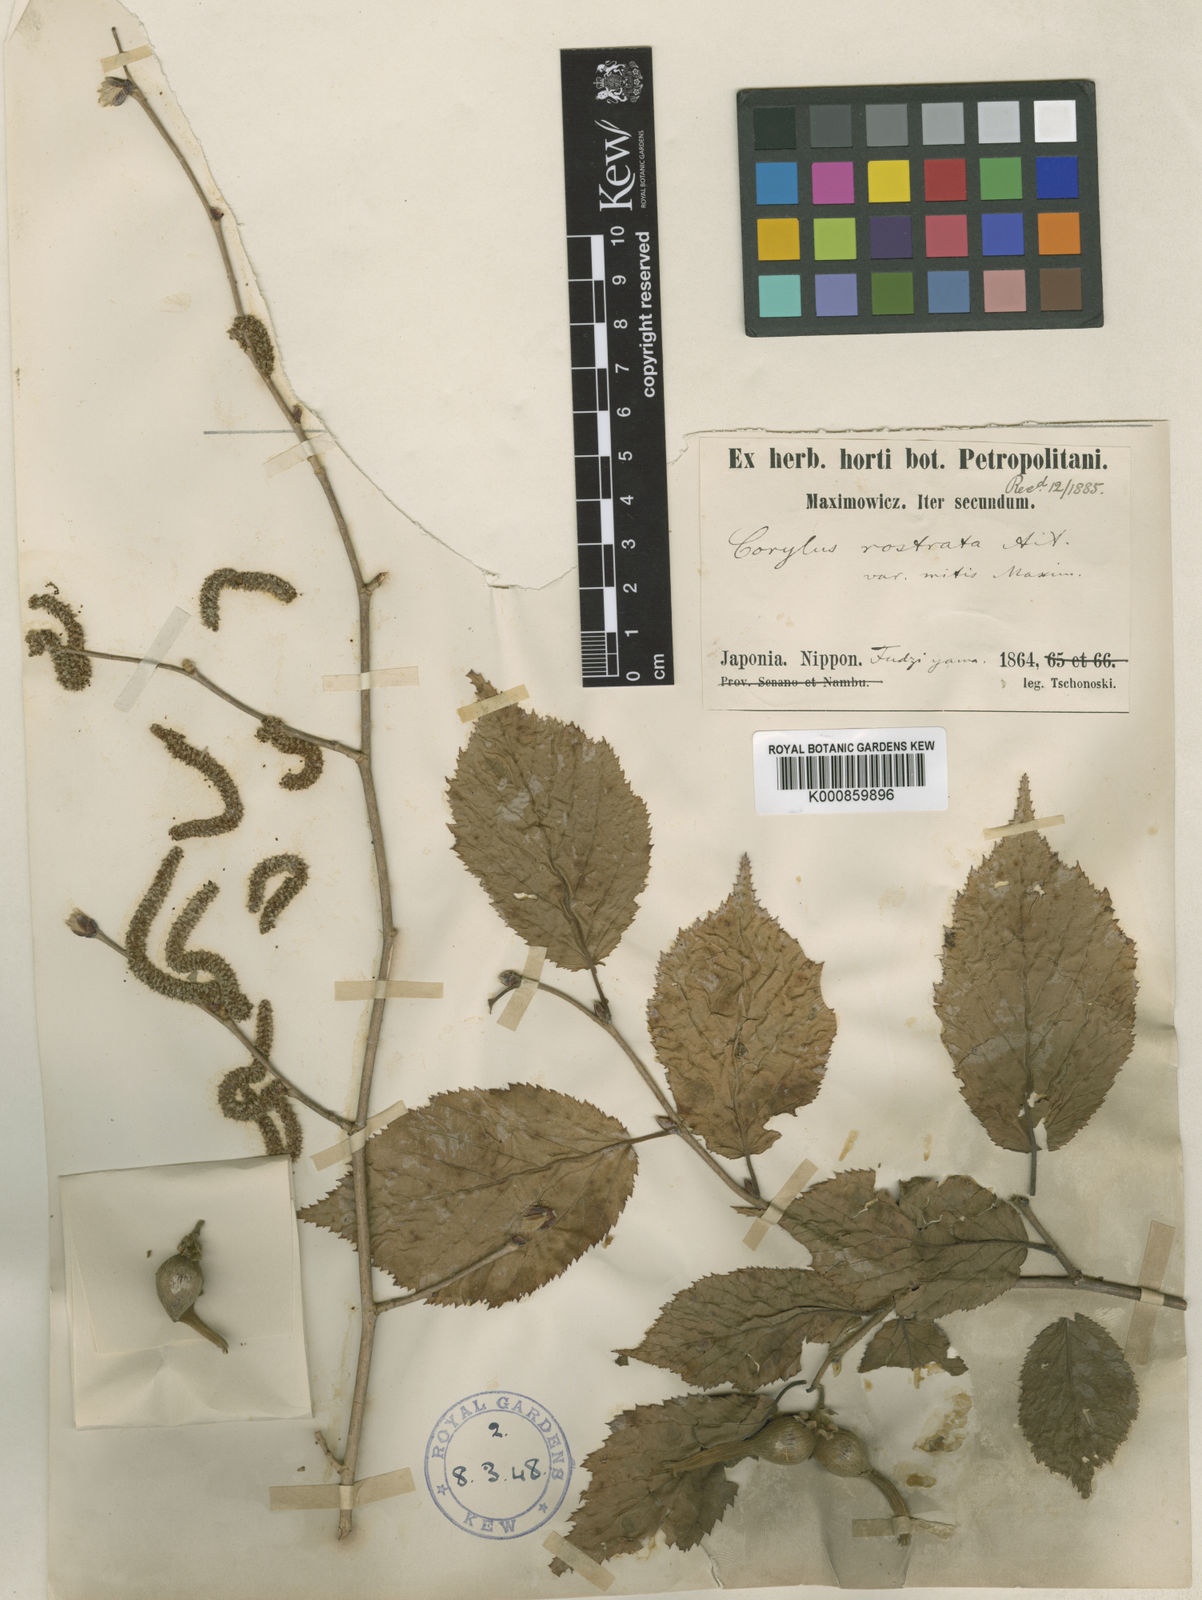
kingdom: Plantae
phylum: Tracheophyta
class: Magnoliopsida
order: Fagales
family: Betulaceae
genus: Corylus
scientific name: Corylus sieboldiana
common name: Japanese hazel
